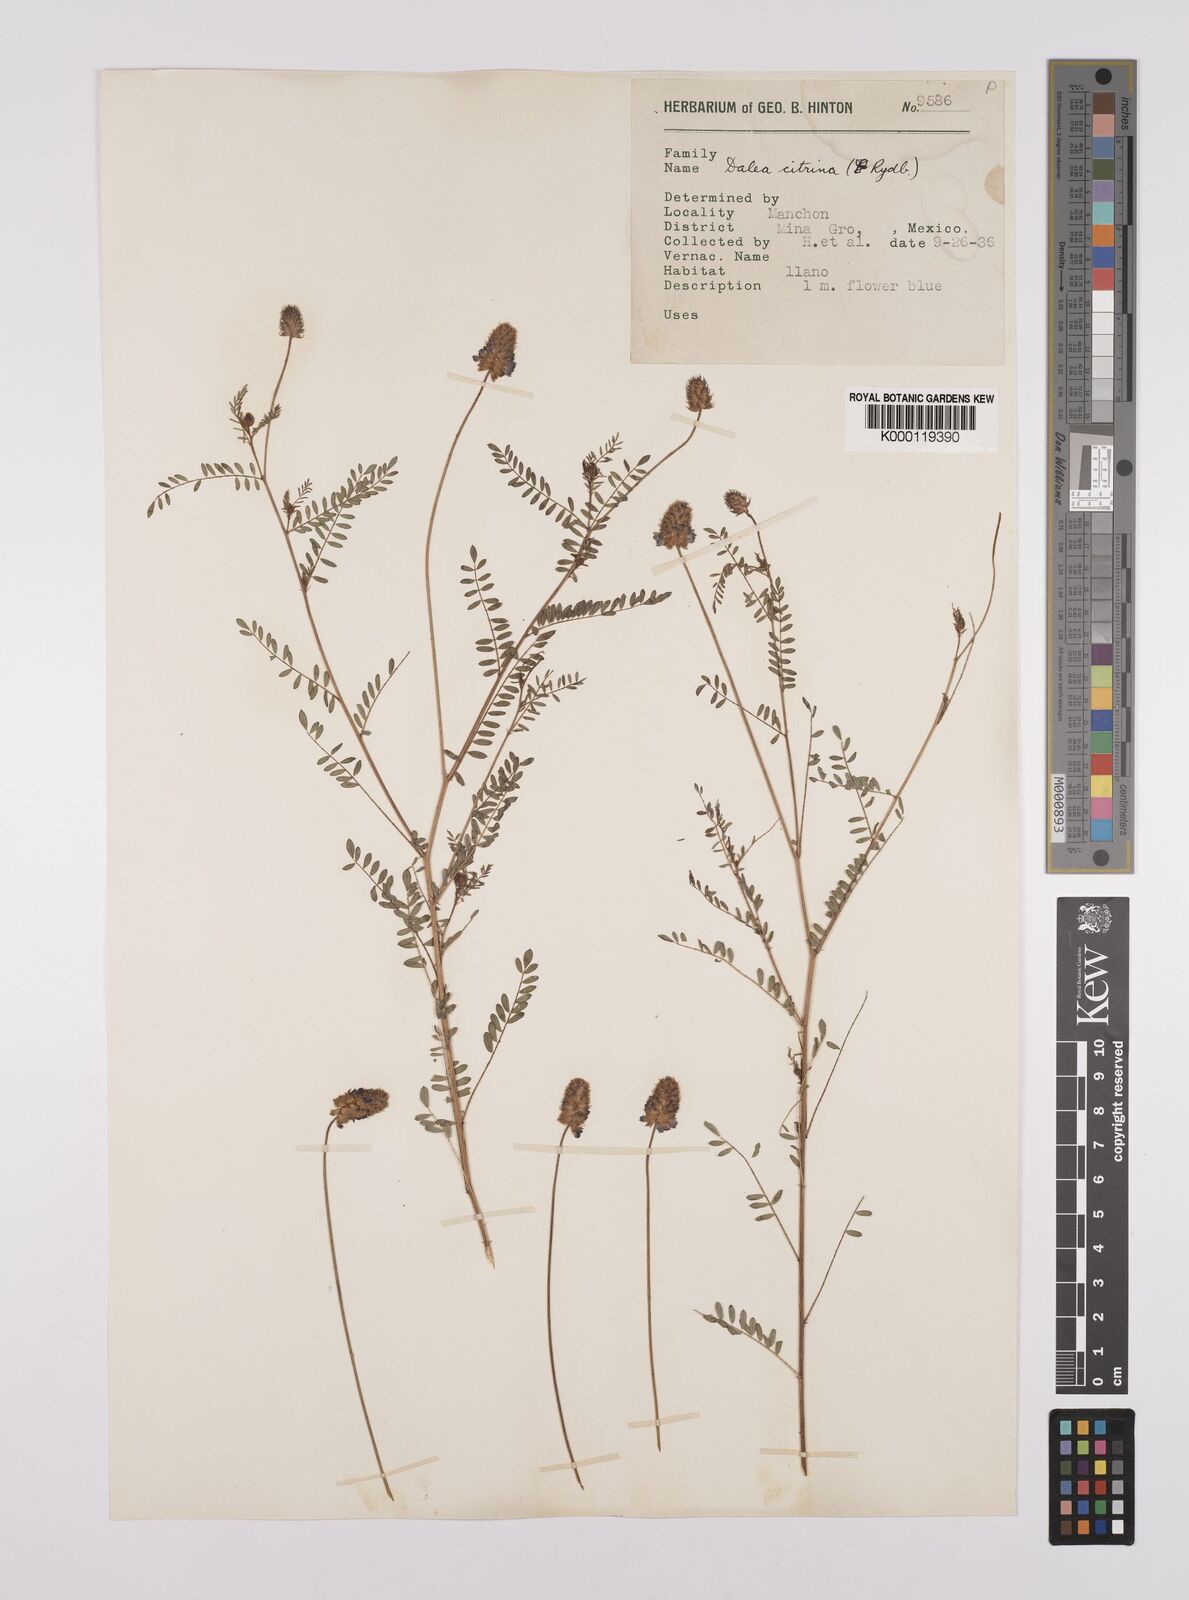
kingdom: Plantae
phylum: Tracheophyta
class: Magnoliopsida
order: Fabales
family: Fabaceae
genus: Dalea
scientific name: Dalea foliolosa
